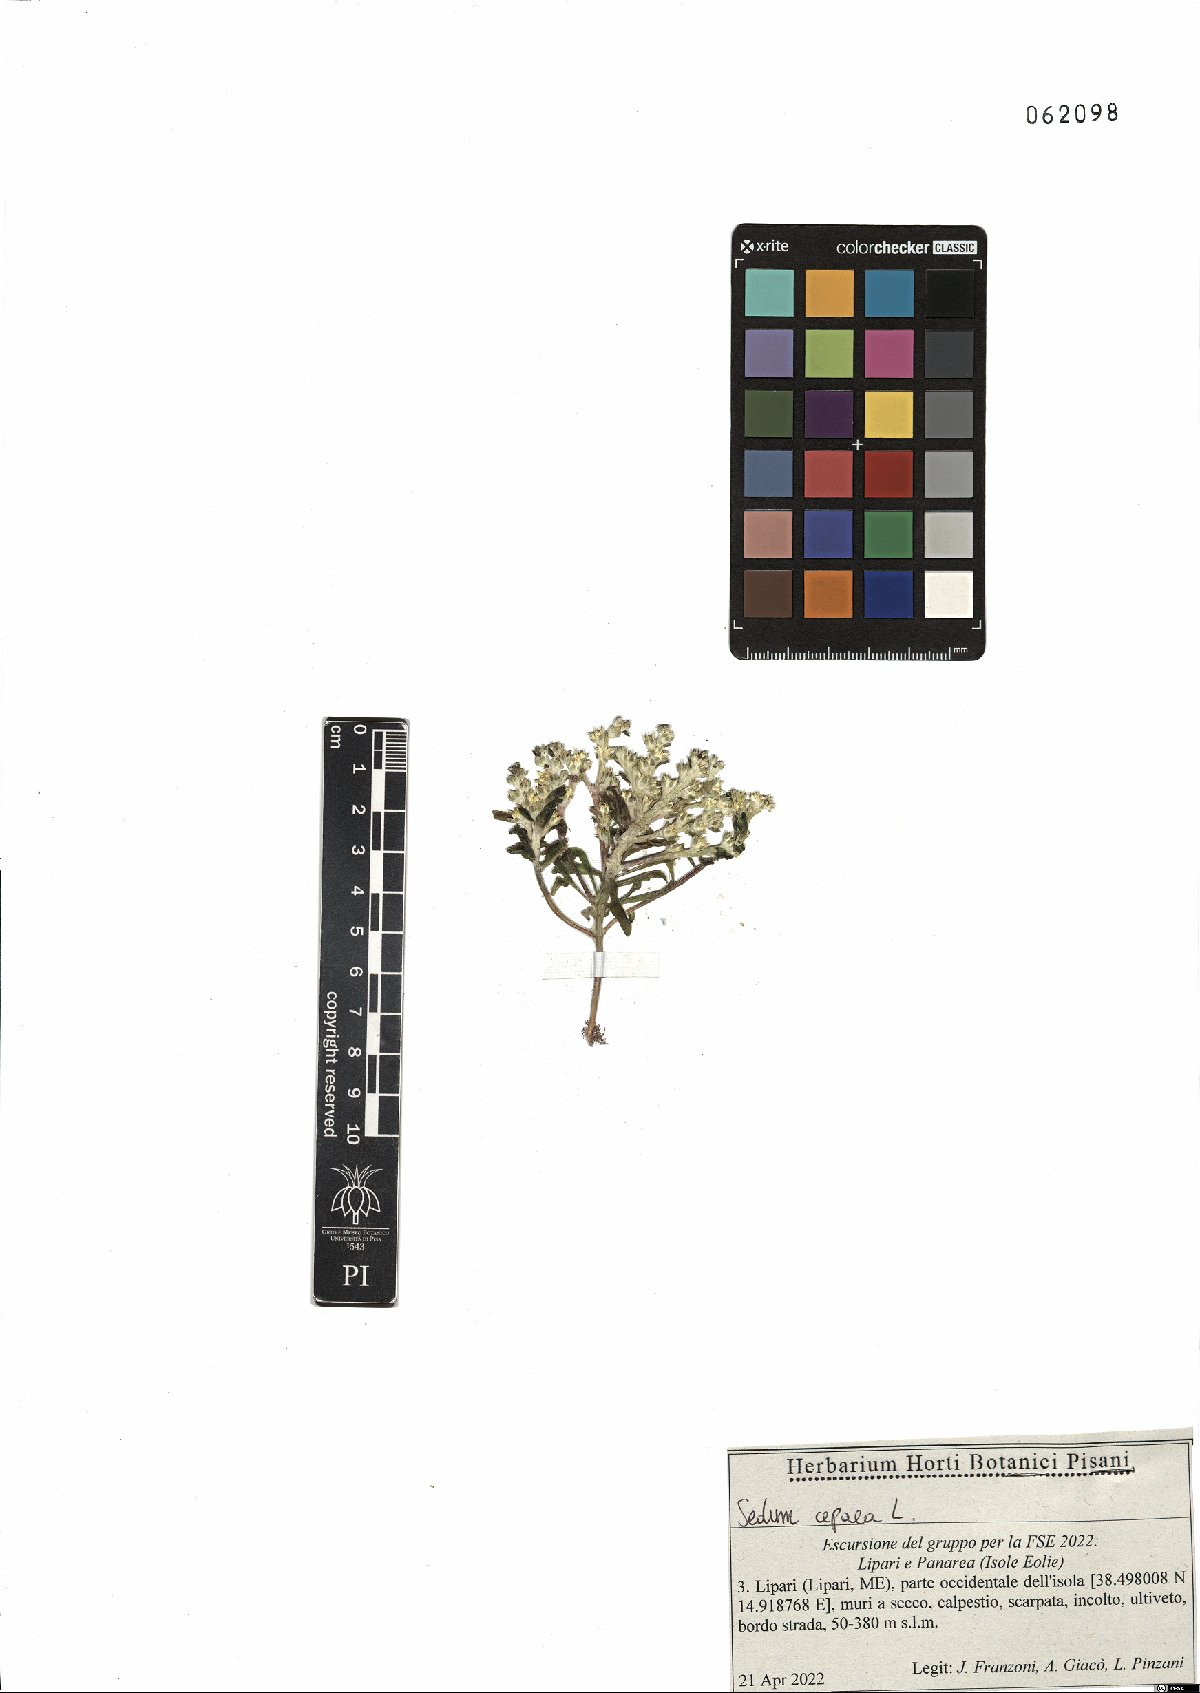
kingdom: Plantae
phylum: Tracheophyta
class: Magnoliopsida
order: Saxifragales
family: Crassulaceae
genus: Sedum
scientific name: Sedum cepaea
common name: Pink stonecrop
